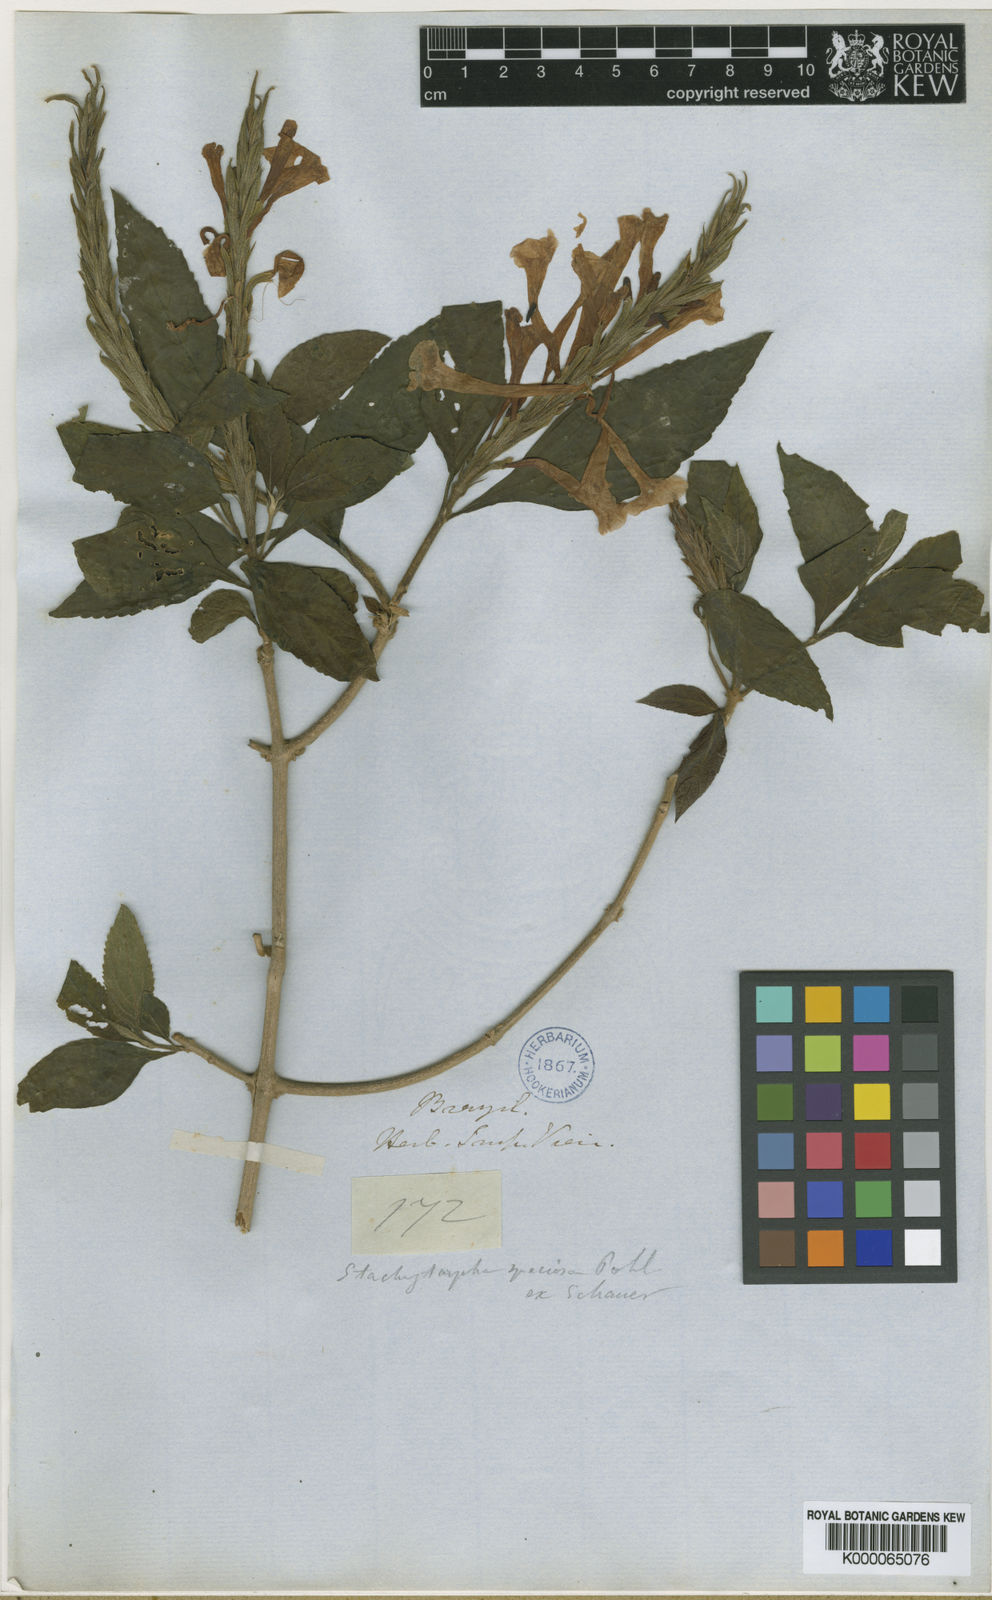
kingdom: Plantae
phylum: Tracheophyta
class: Magnoliopsida
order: Lamiales
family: Verbenaceae
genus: Stachytarpheta
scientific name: Stachytarpheta
